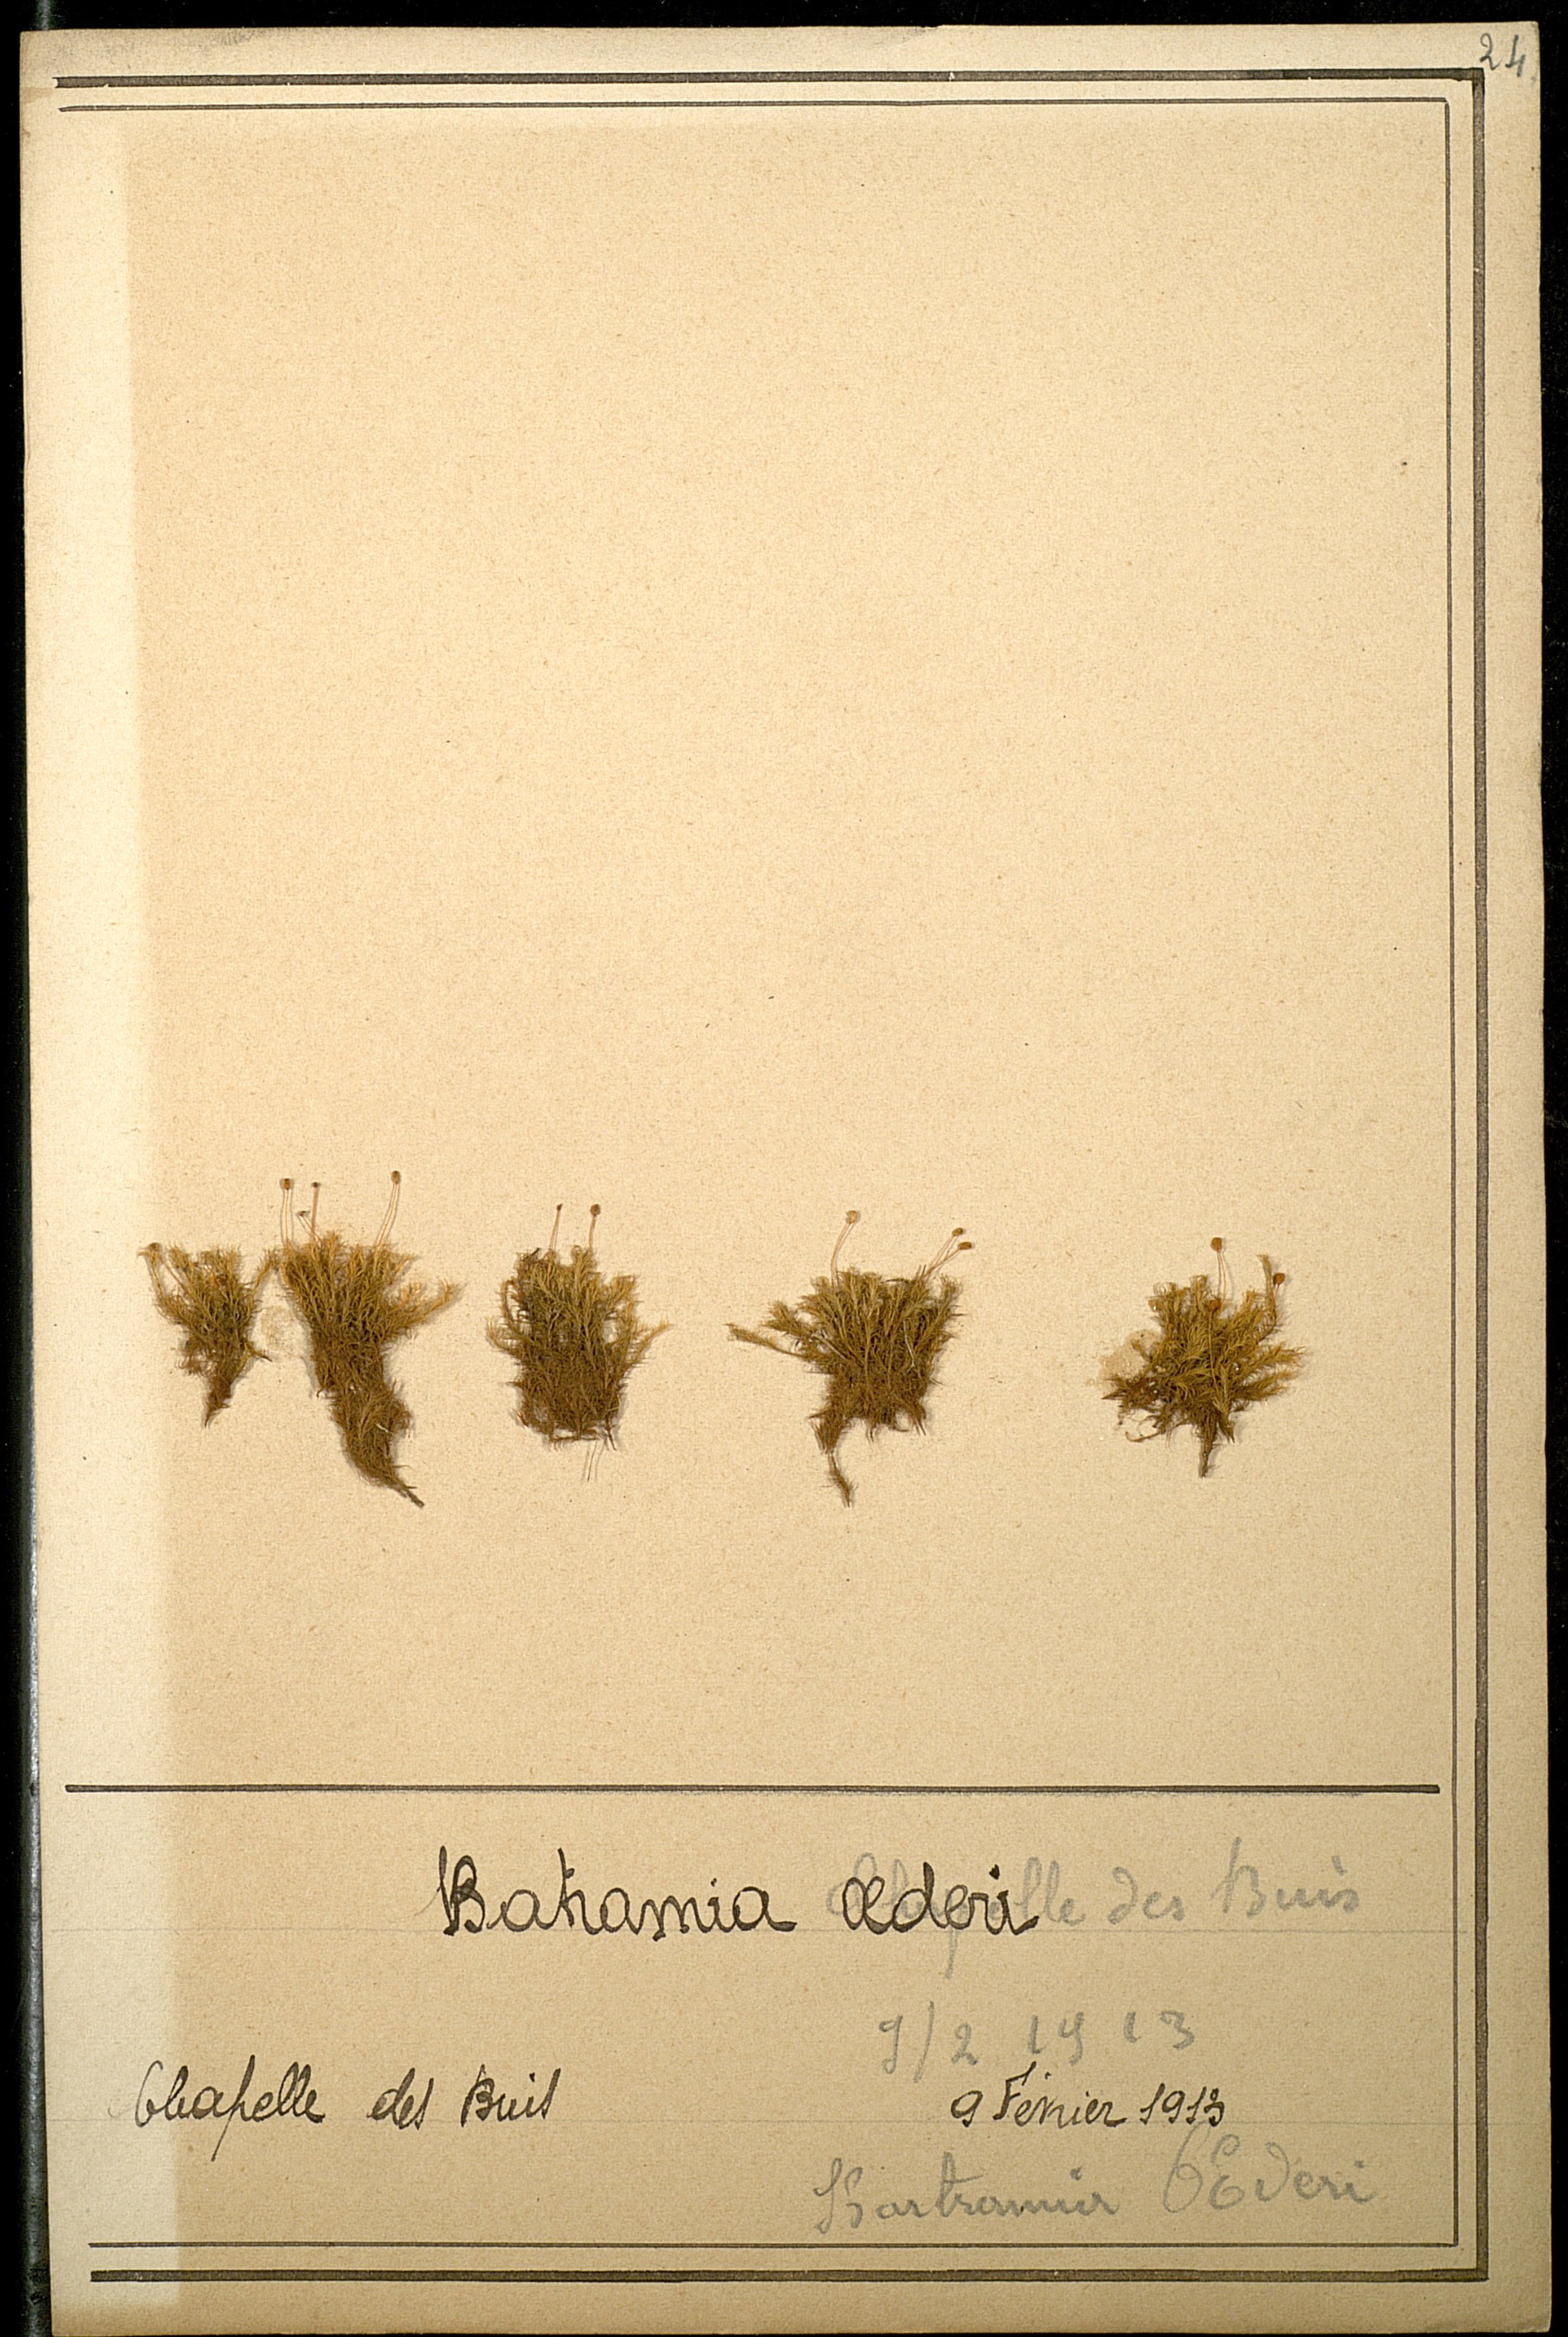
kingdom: Plantae
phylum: Bryophyta
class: Bryopsida
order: Bartramiales
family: Bartramiaceae
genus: Plagiopus
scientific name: Plagiopus oederianus
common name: Oeder's apple moss
